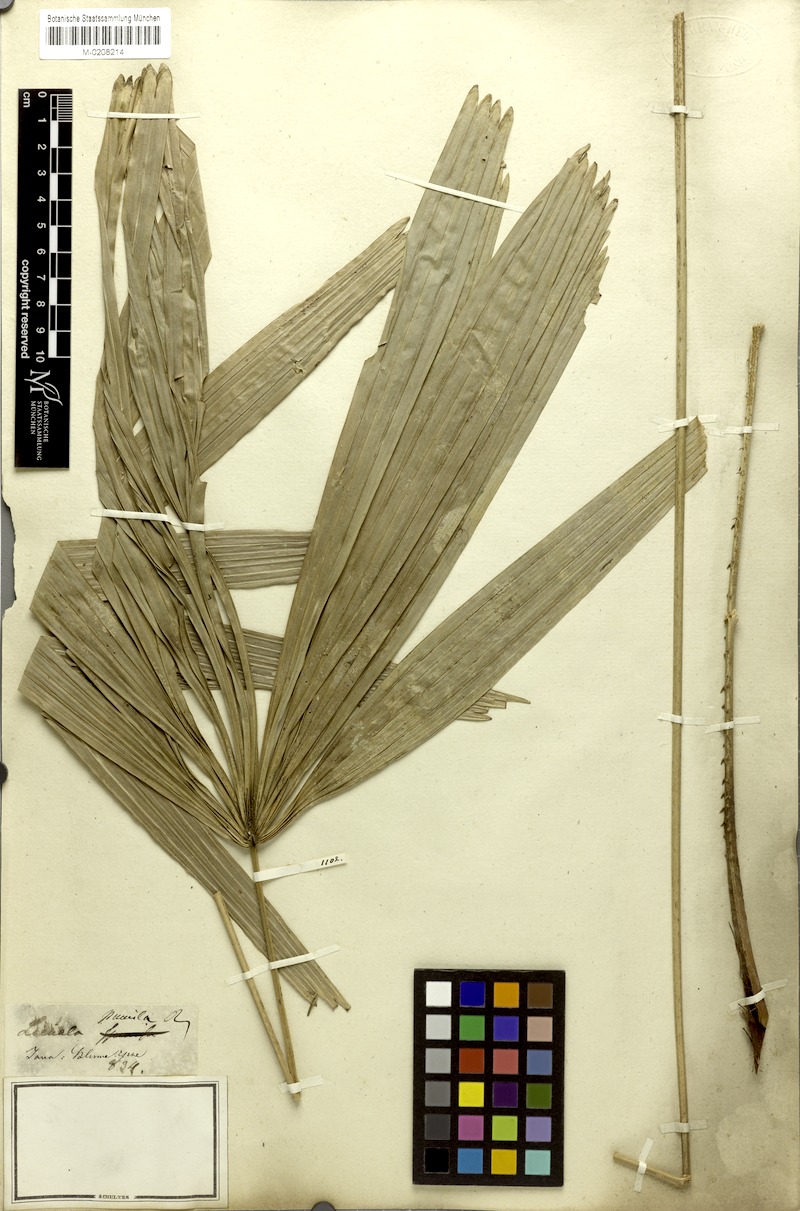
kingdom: Plantae
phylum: Tracheophyta
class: Liliopsida
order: Arecales
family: Arecaceae
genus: Licuala
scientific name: Licuala pumila
